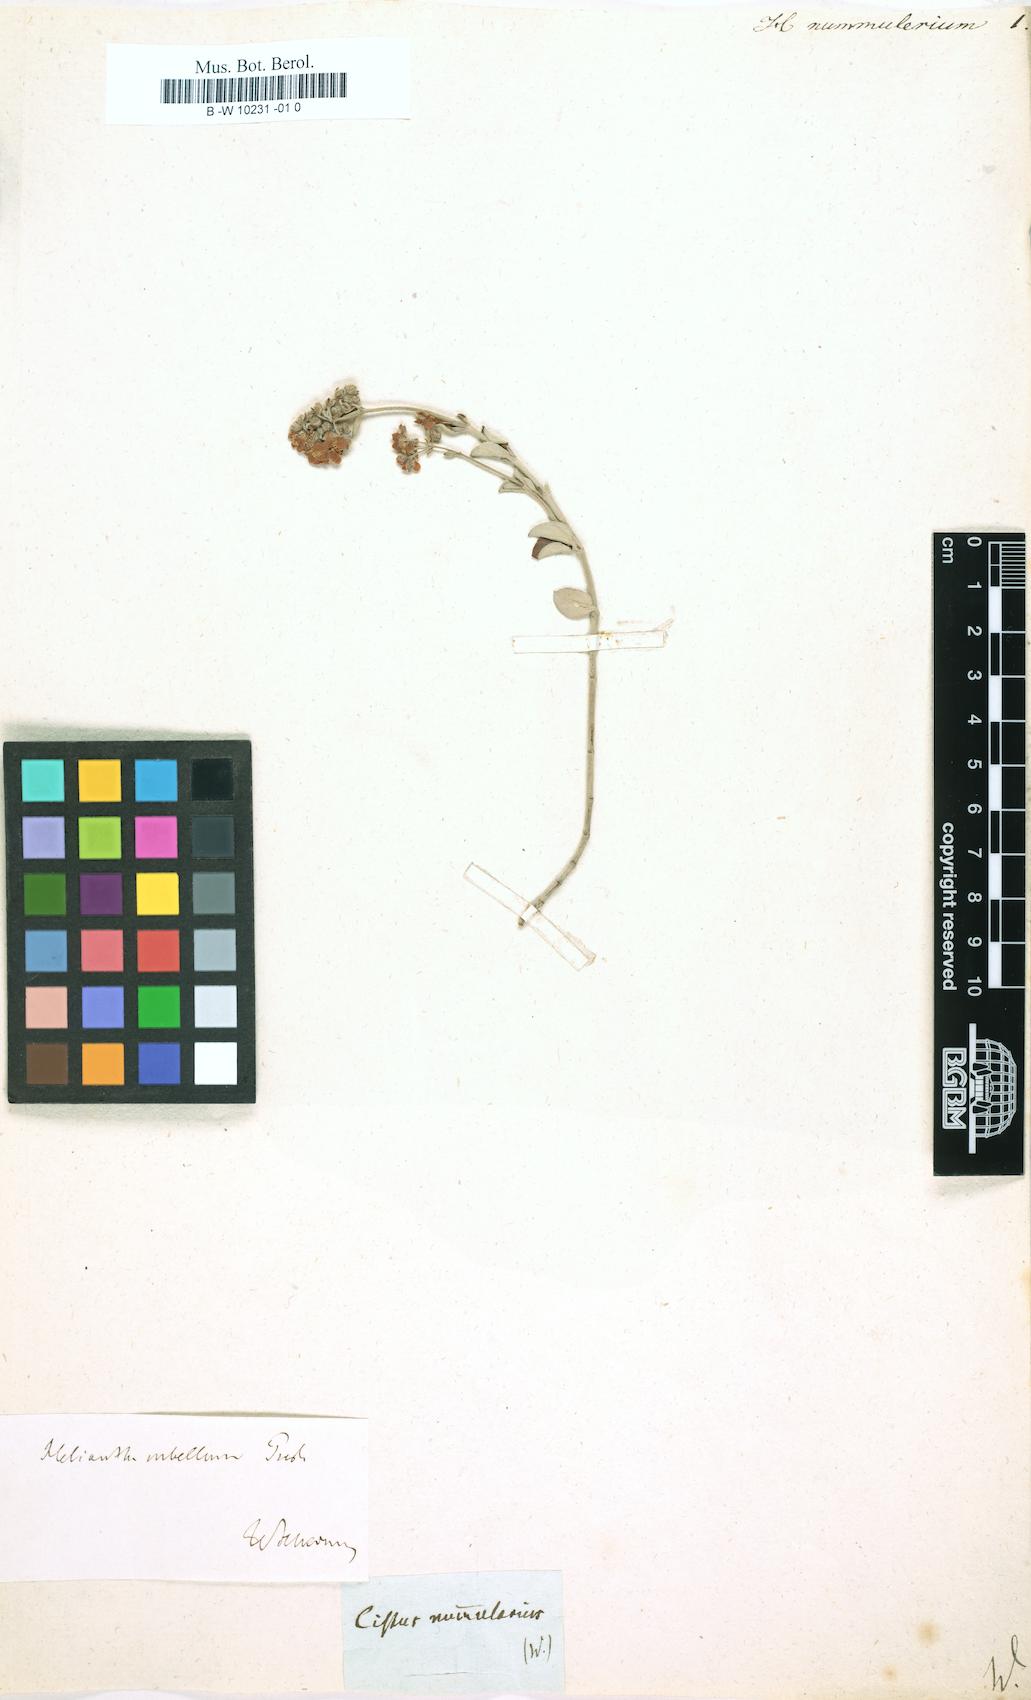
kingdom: Plantae
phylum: Tracheophyta
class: Magnoliopsida
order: Malvales
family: Cistaceae
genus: Helianthemum
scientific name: Helianthemum nummularium
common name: Common rock-rose
